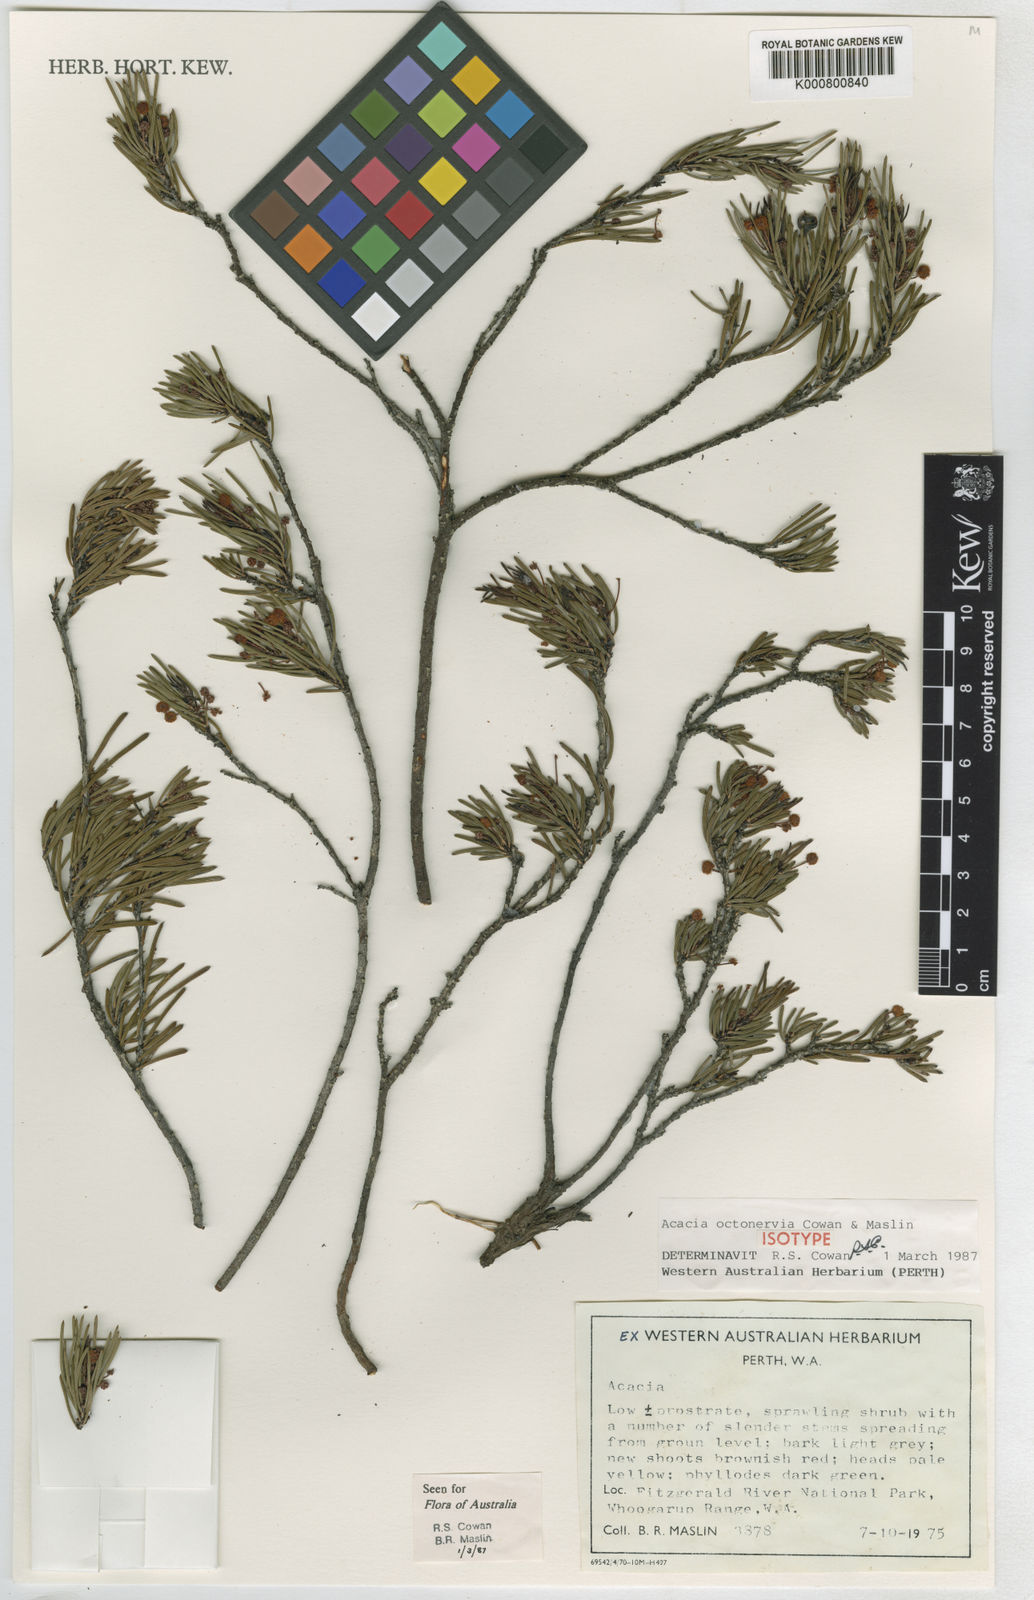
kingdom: Plantae
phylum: Tracheophyta
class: Magnoliopsida
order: Fabales
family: Fabaceae
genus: Acacia
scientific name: Acacia octonervia
